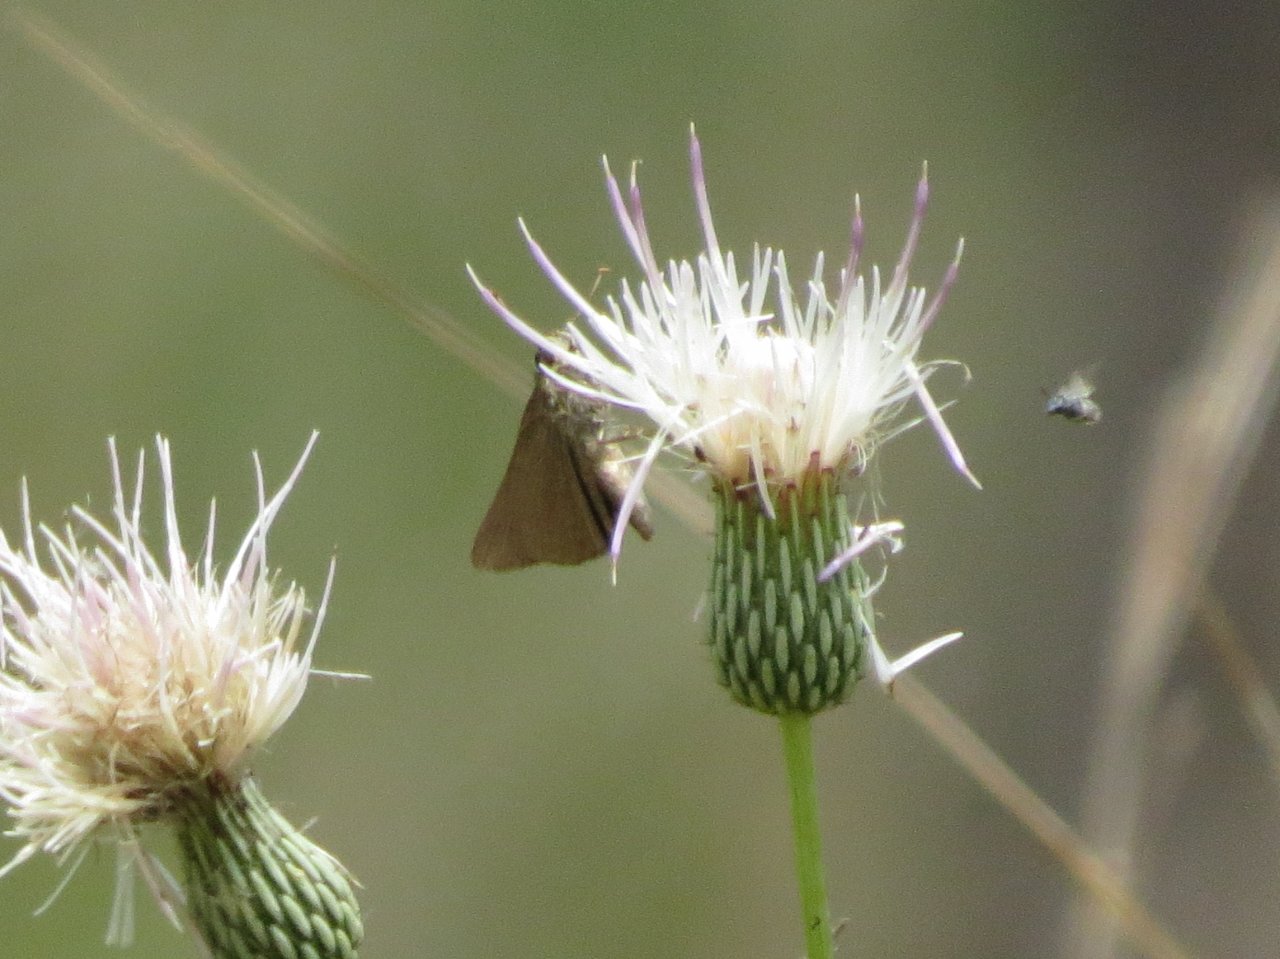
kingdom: Animalia
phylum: Arthropoda
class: Insecta
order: Lepidoptera
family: Hesperiidae
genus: Nastra
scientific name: Nastra lherminier
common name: Swarthy Skipper
